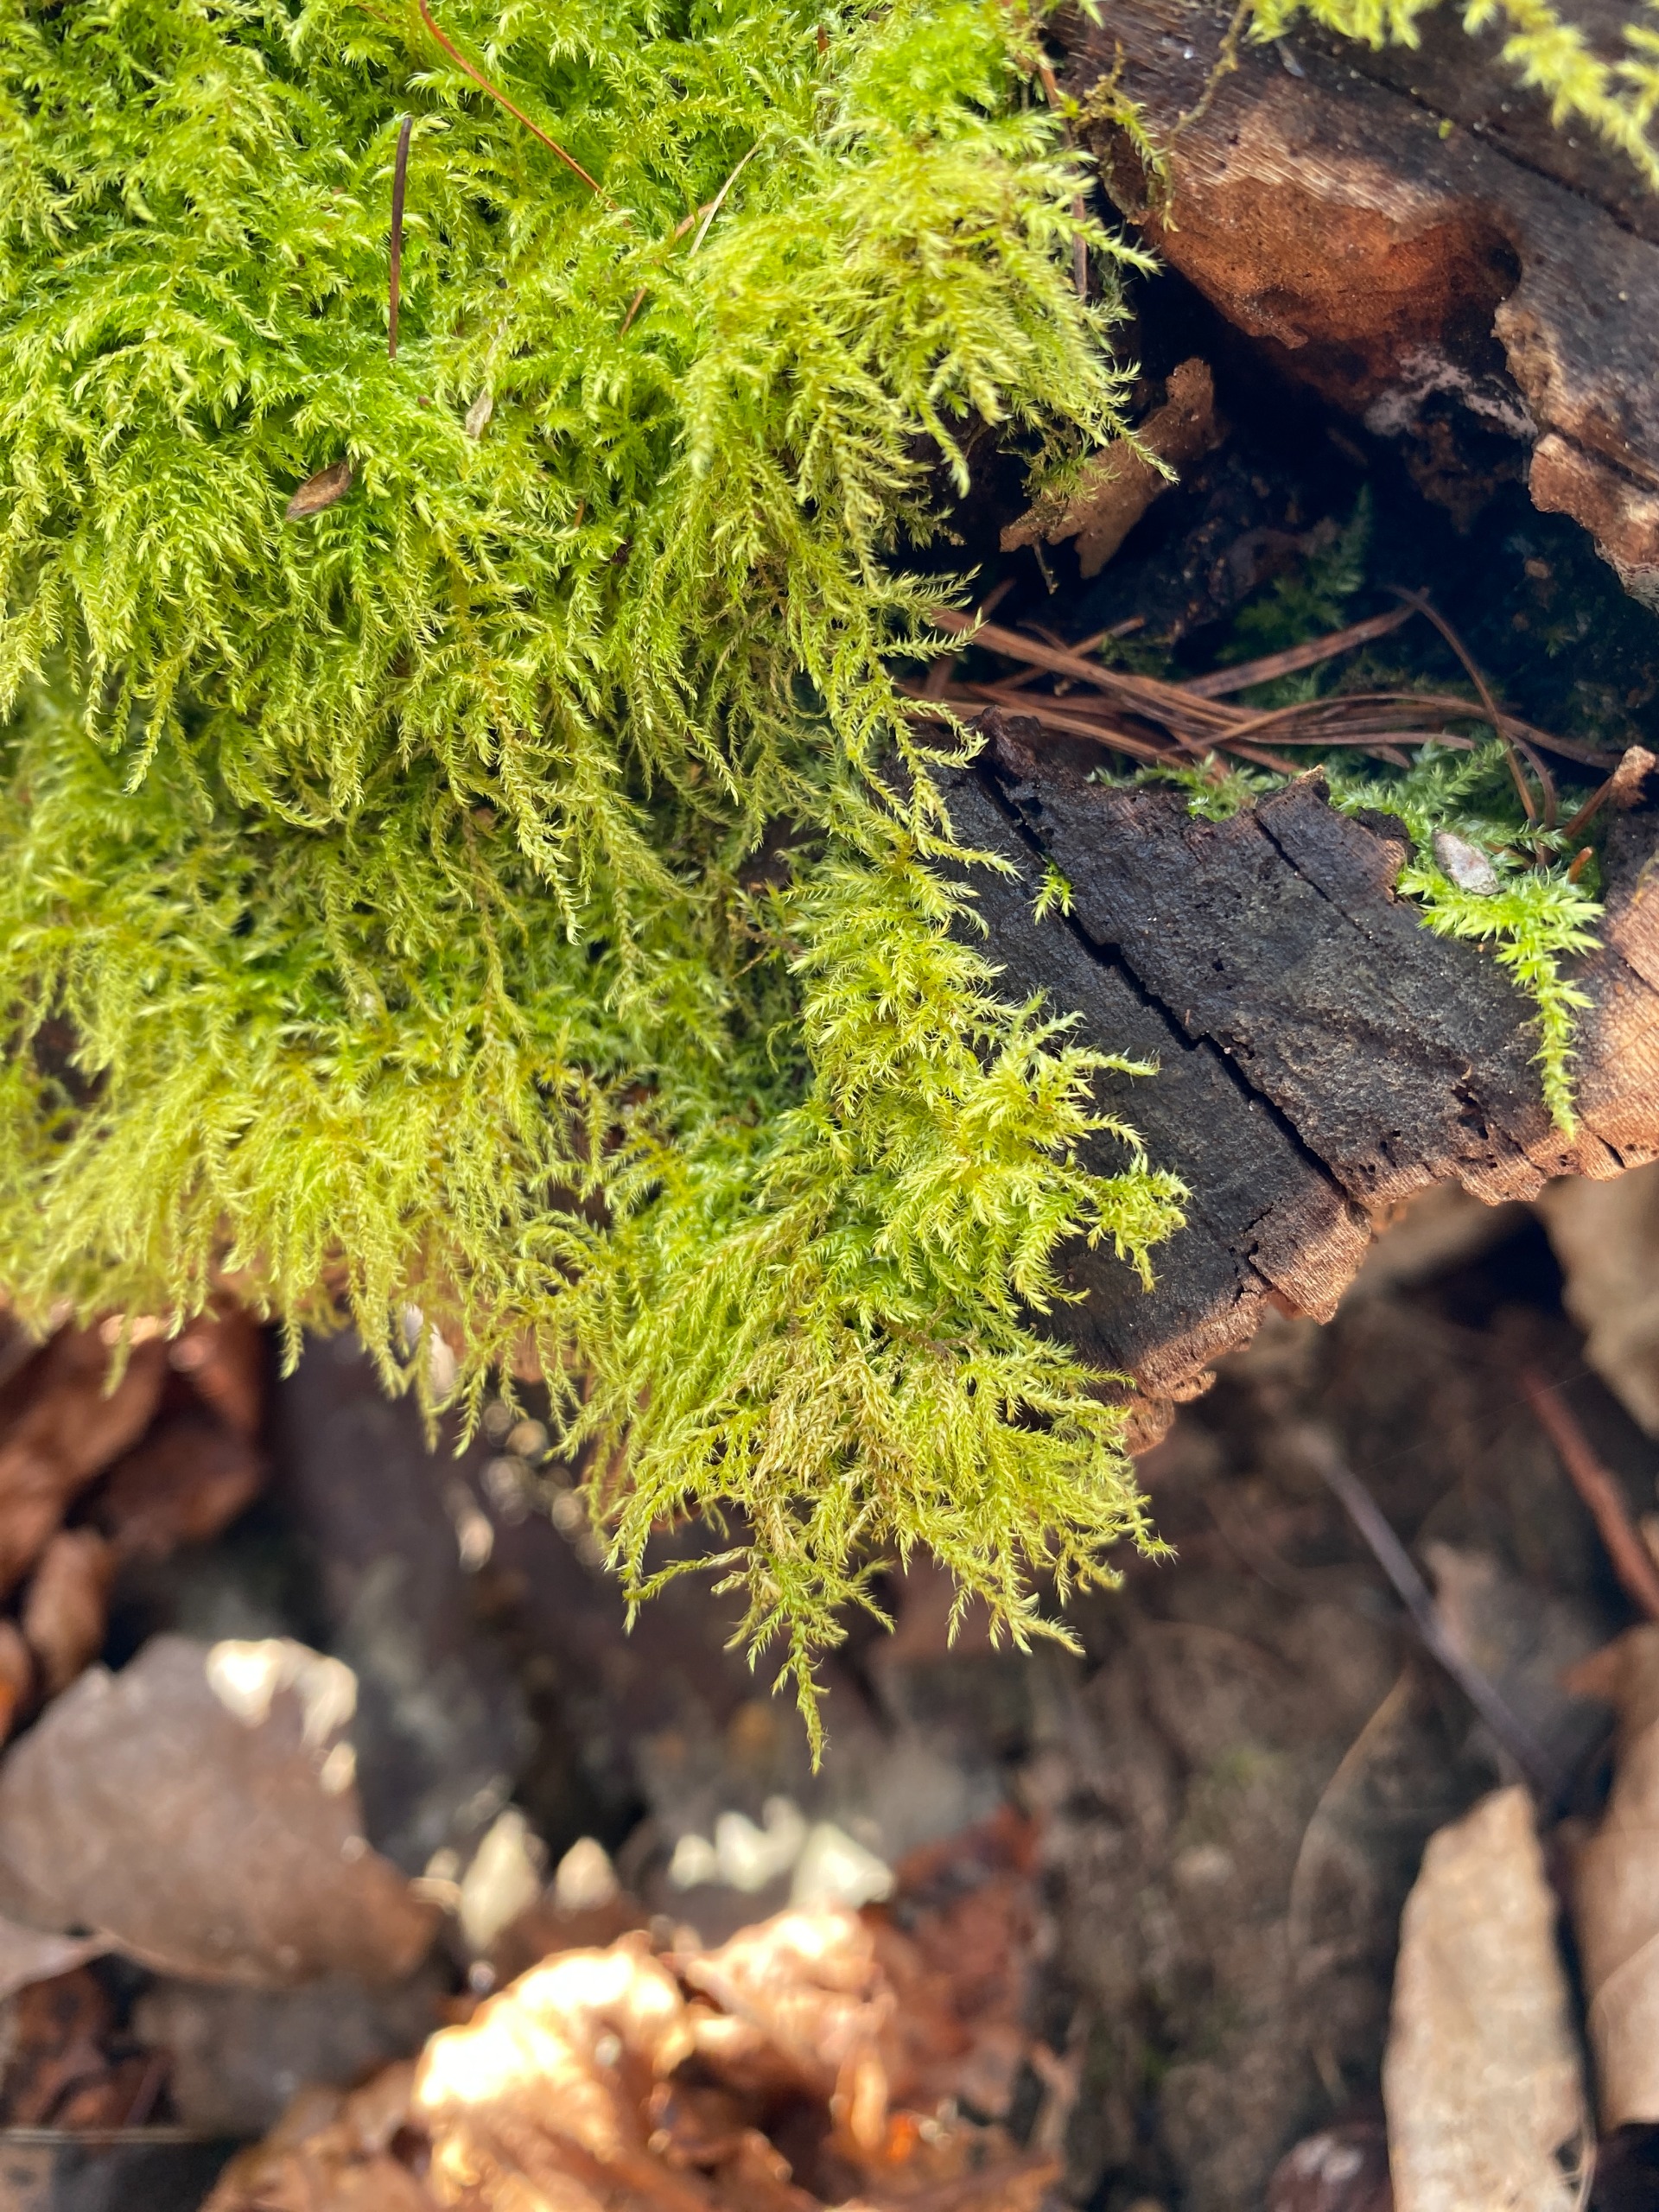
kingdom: Plantae
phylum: Bryophyta
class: Bryopsida
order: Hypnales
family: Brachytheciaceae
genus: Kindbergia
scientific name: Kindbergia praelonga
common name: Forskelligbladet vortetand
